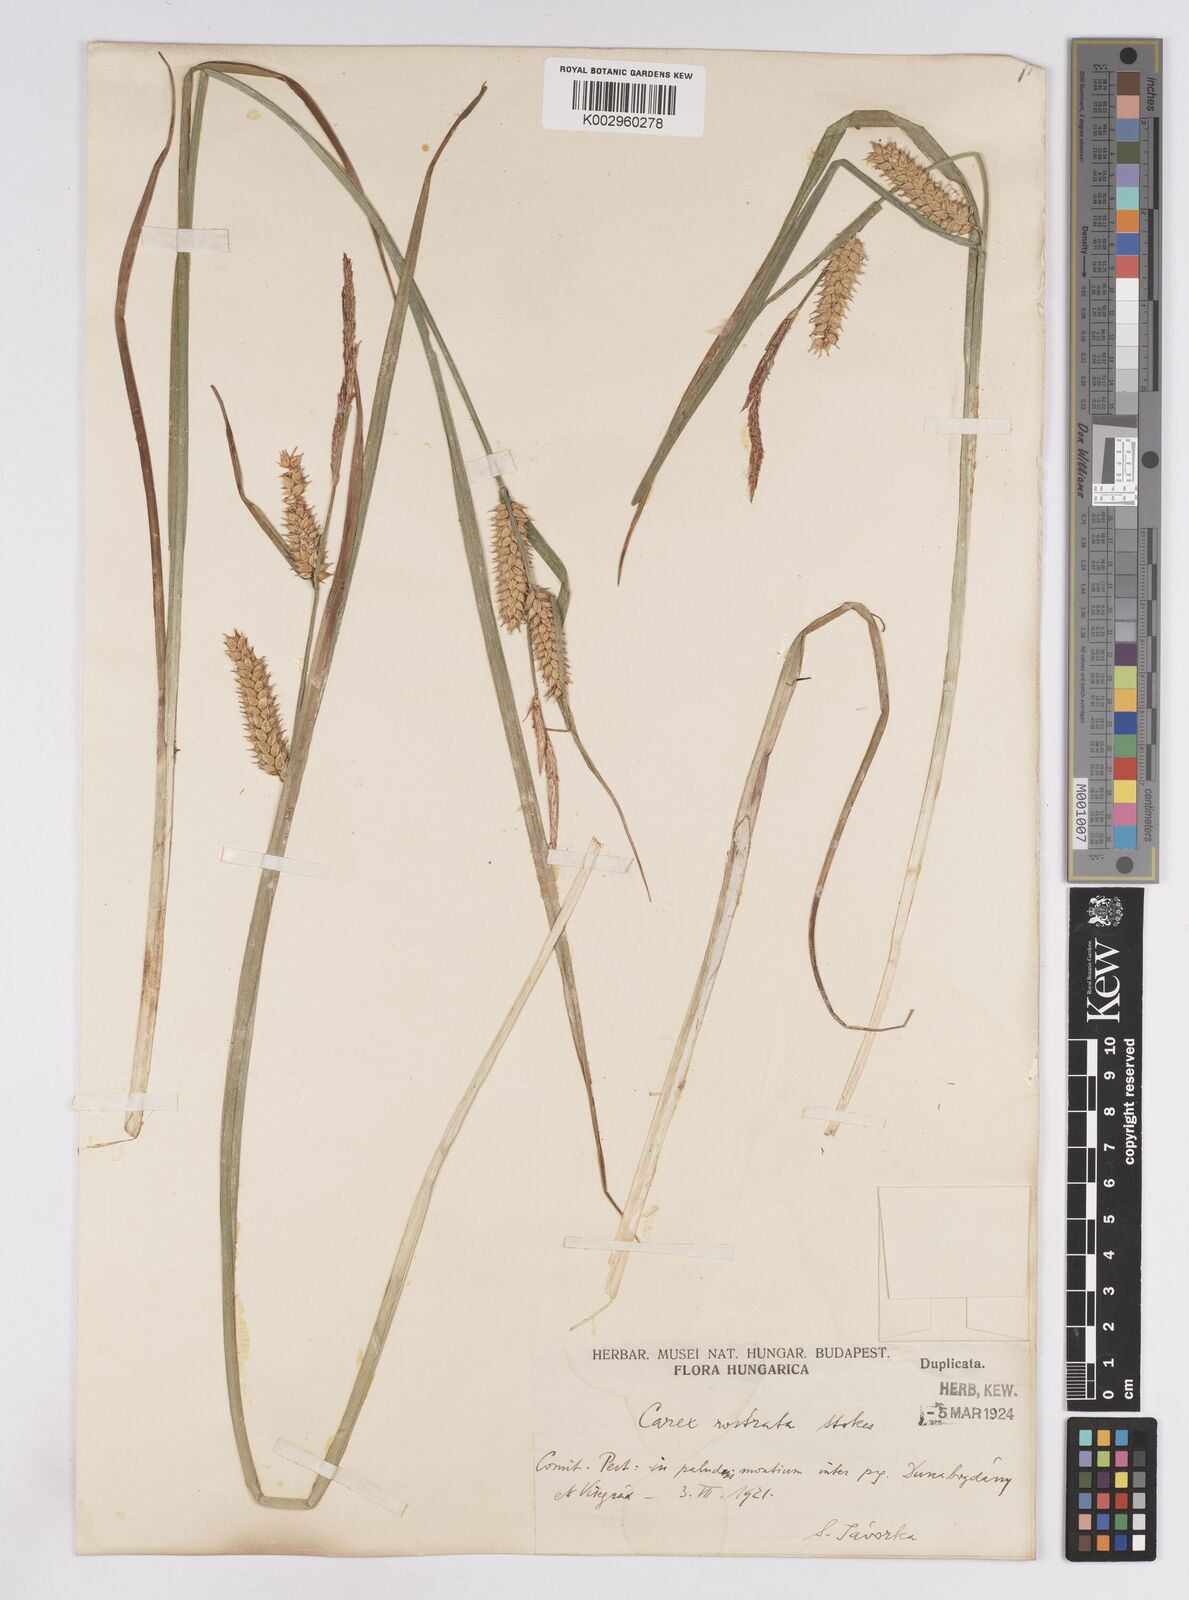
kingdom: Plantae
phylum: Tracheophyta
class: Liliopsida
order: Poales
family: Cyperaceae
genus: Carex
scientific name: Carex vesicaria
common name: Bladder-sedge
